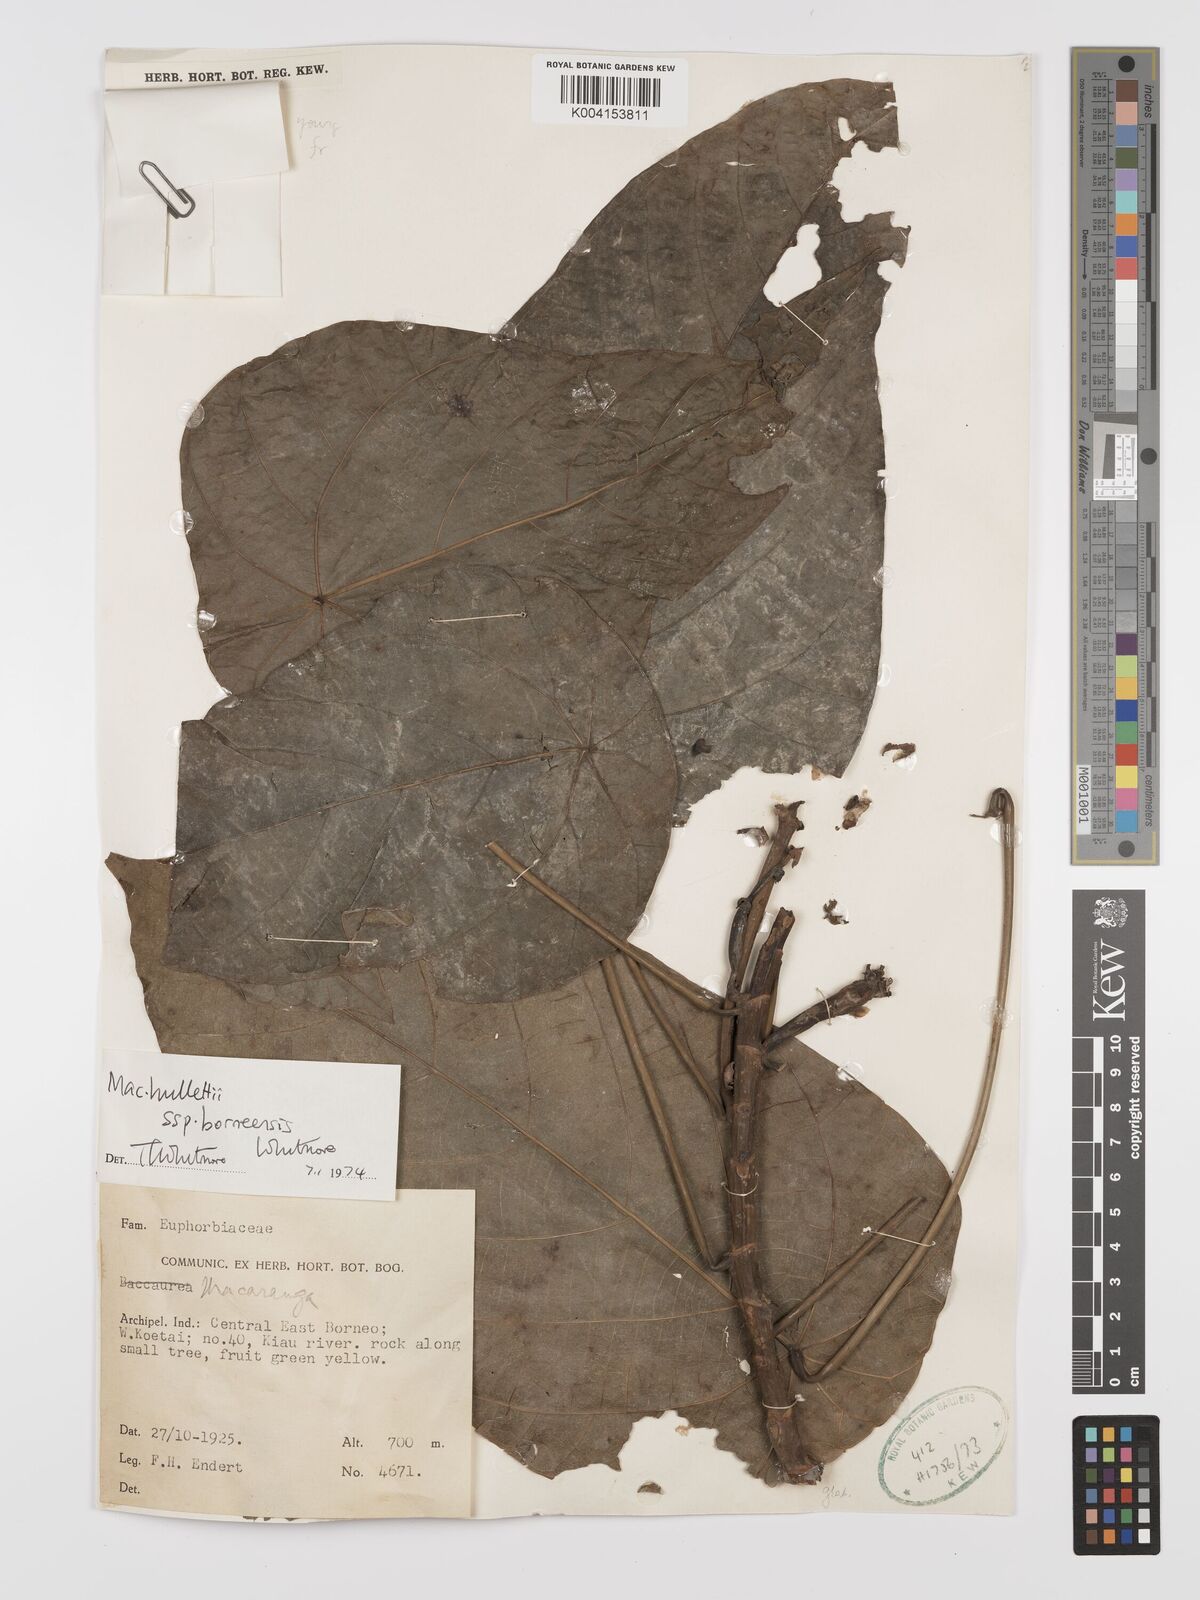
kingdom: Plantae
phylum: Tracheophyta
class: Magnoliopsida
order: Malpighiales
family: Euphorbiaceae
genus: Macaranga
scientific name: Macaranga hullettii
